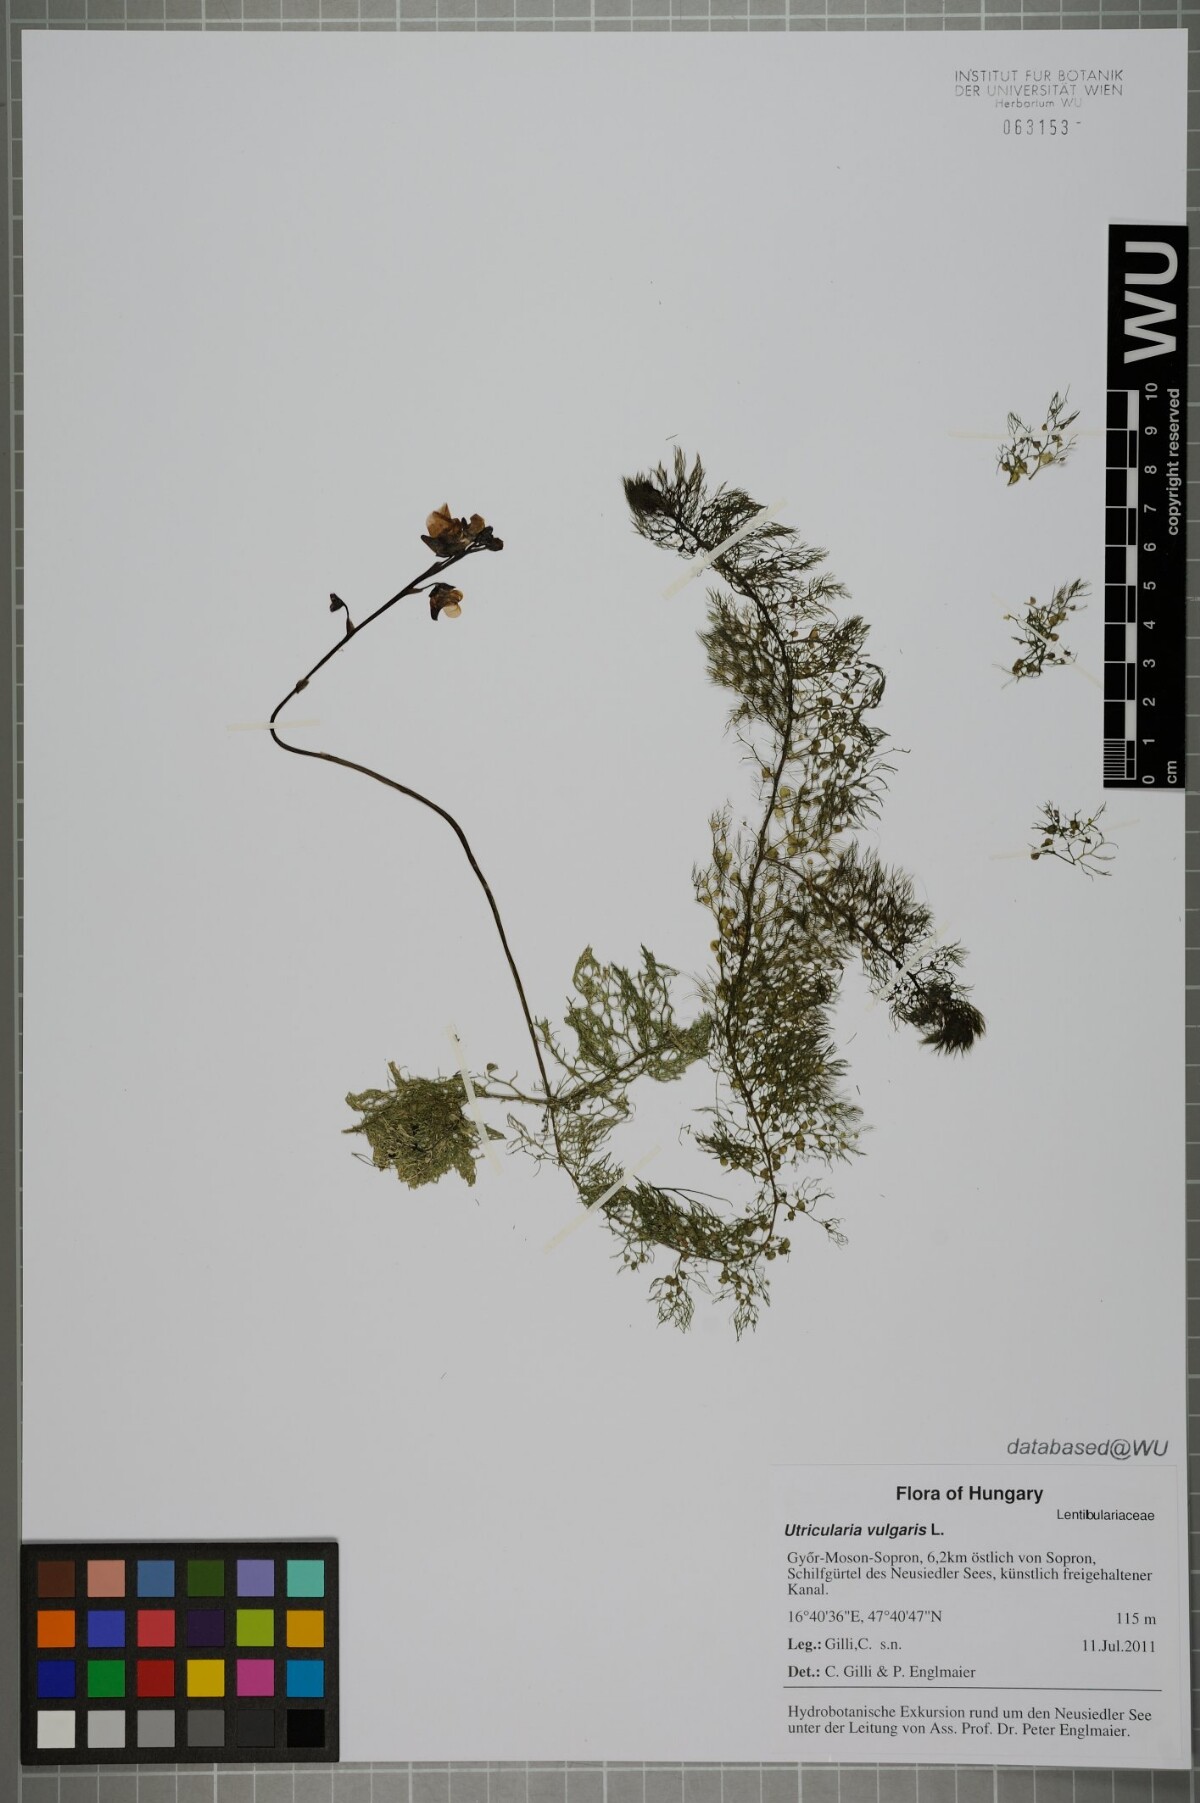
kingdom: Plantae
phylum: Tracheophyta
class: Magnoliopsida
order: Lamiales
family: Lentibulariaceae
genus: Utricularia
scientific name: Utricularia vulgaris
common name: Greater bladderwort
